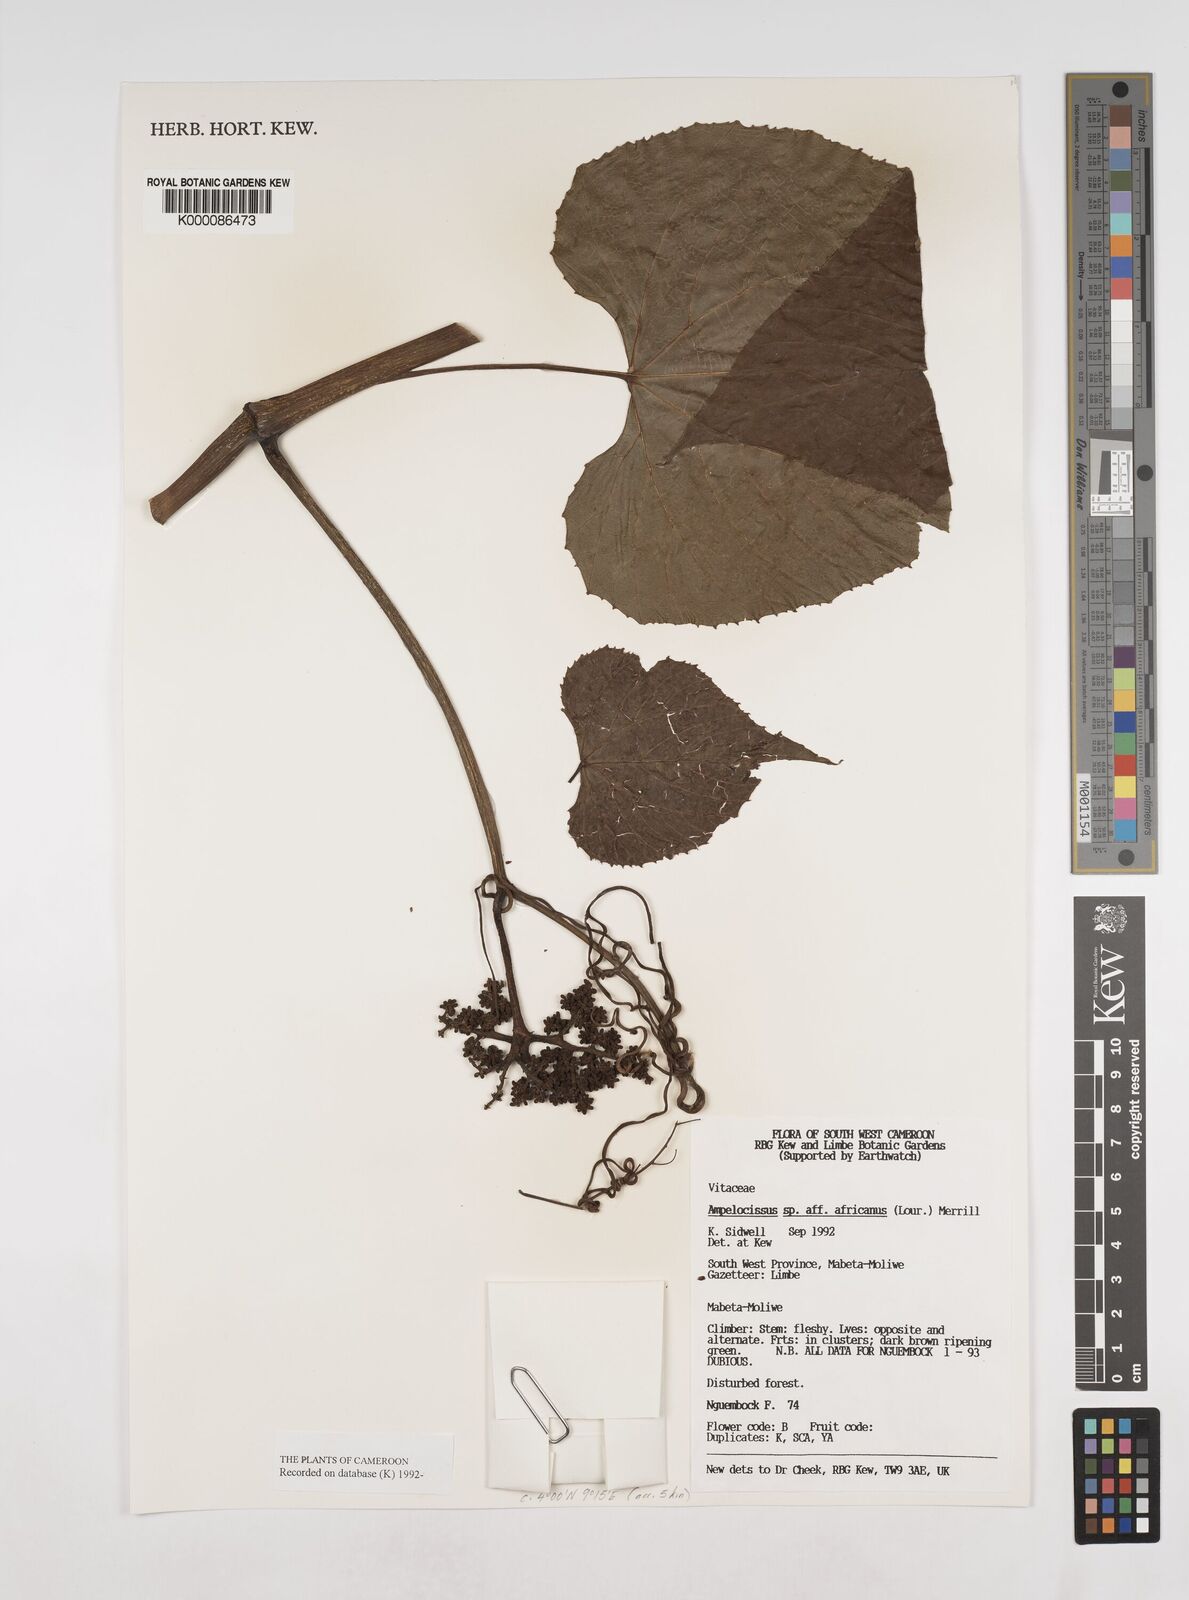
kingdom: Plantae
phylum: Tracheophyta
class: Magnoliopsida
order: Vitales
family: Vitaceae
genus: Ampelocissus
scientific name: Ampelocissus africana
